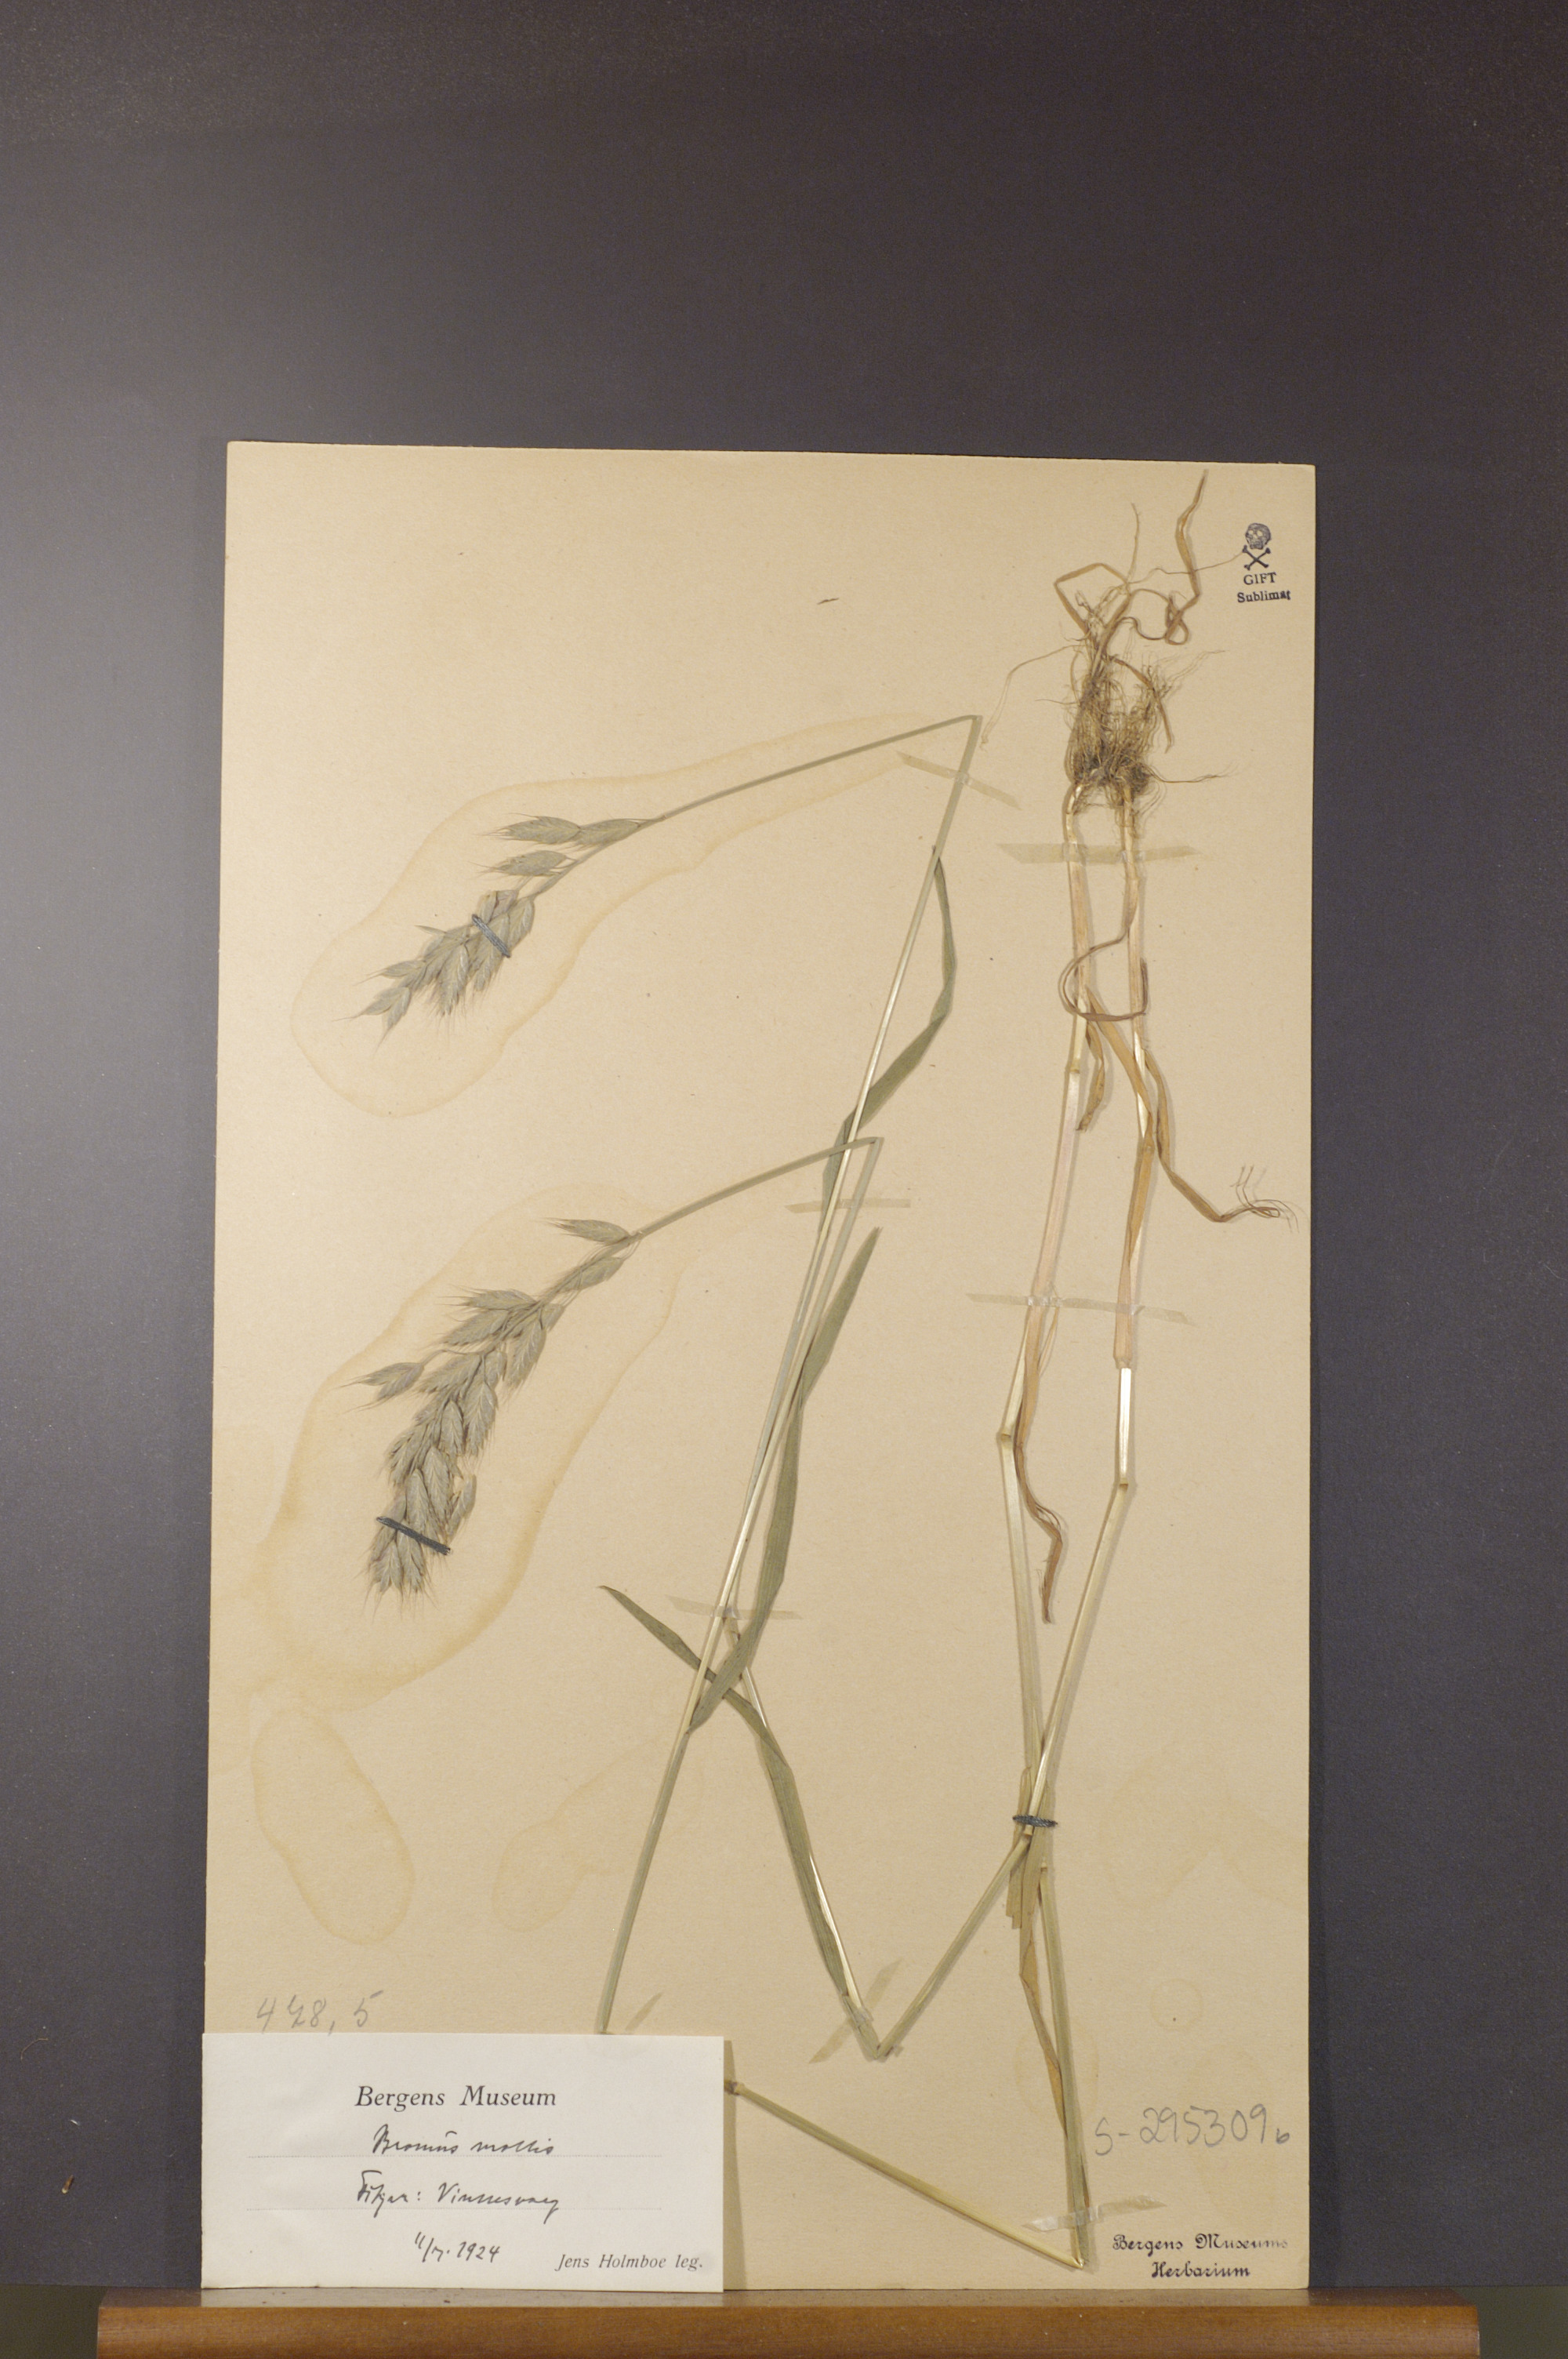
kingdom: Plantae
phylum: Tracheophyta
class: Liliopsida
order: Poales
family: Poaceae
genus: Bromus
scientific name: Bromus hordeaceus
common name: Soft brome
